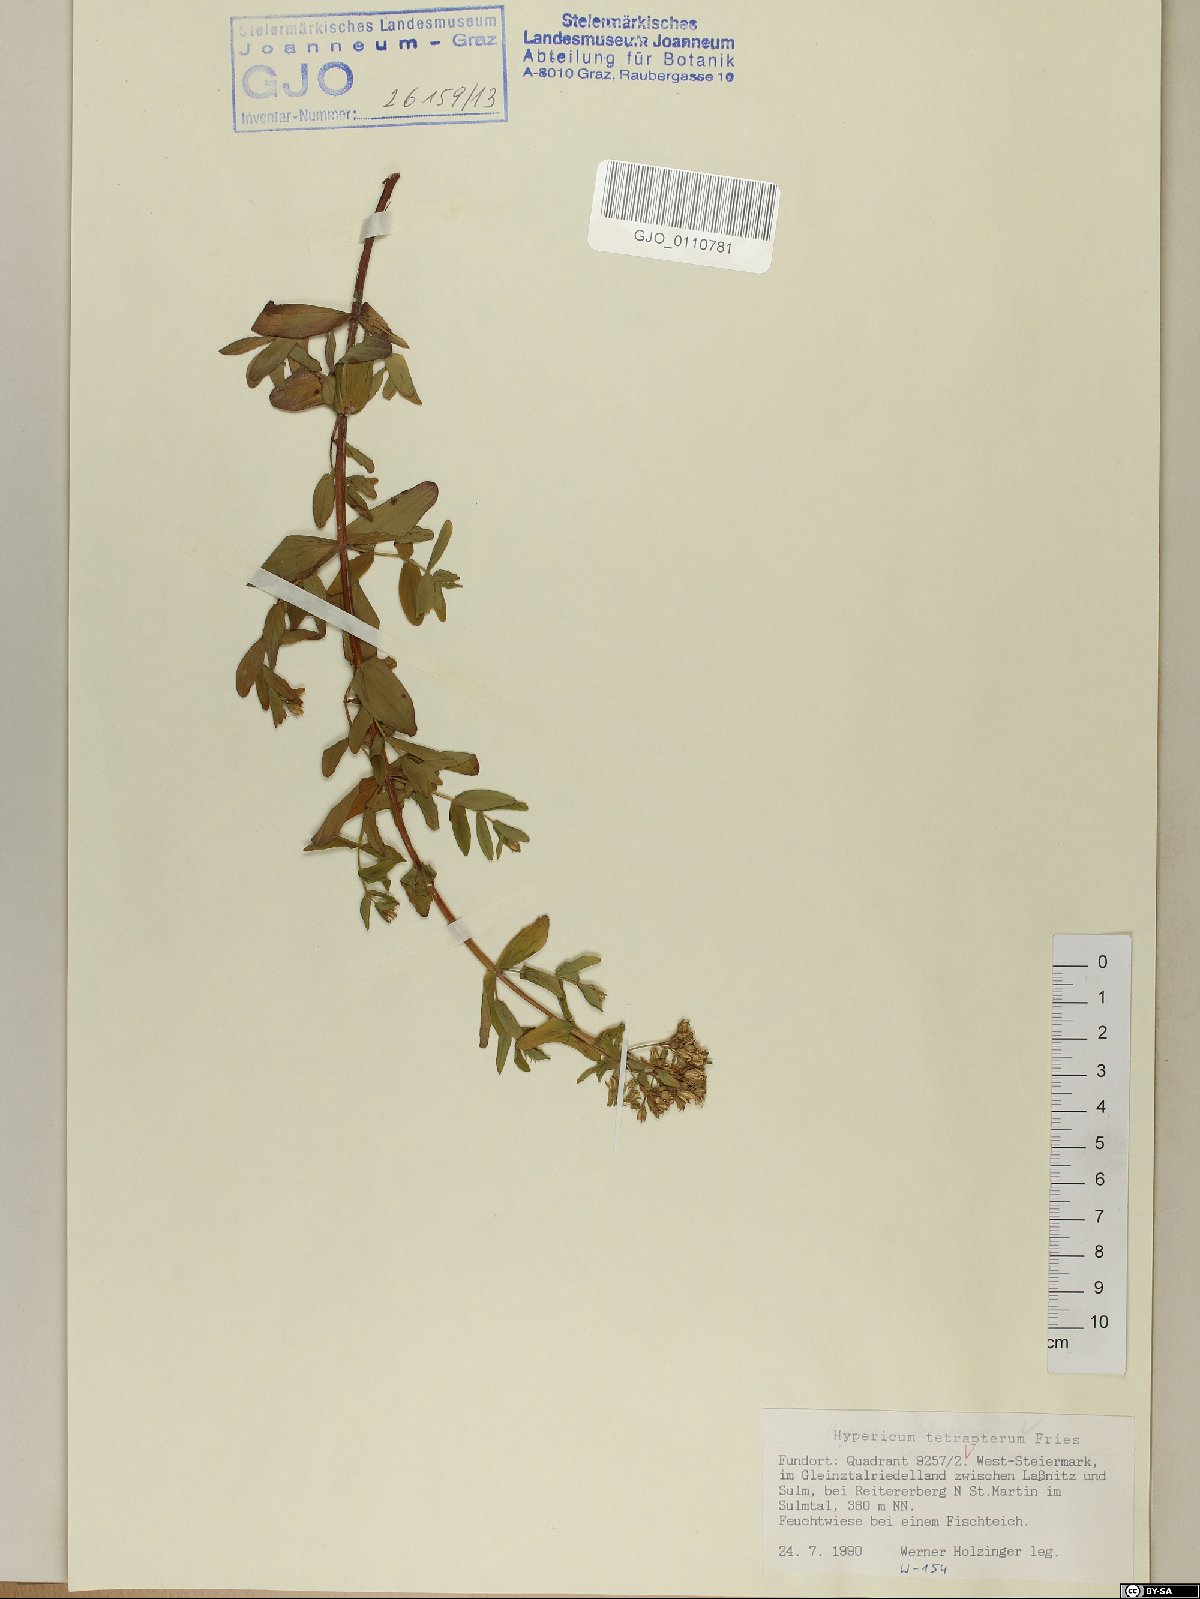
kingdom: Plantae
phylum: Tracheophyta
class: Magnoliopsida
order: Malpighiales
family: Hypericaceae
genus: Hypericum
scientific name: Hypericum tetrapterum
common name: Square-stalked st. john's-wort
